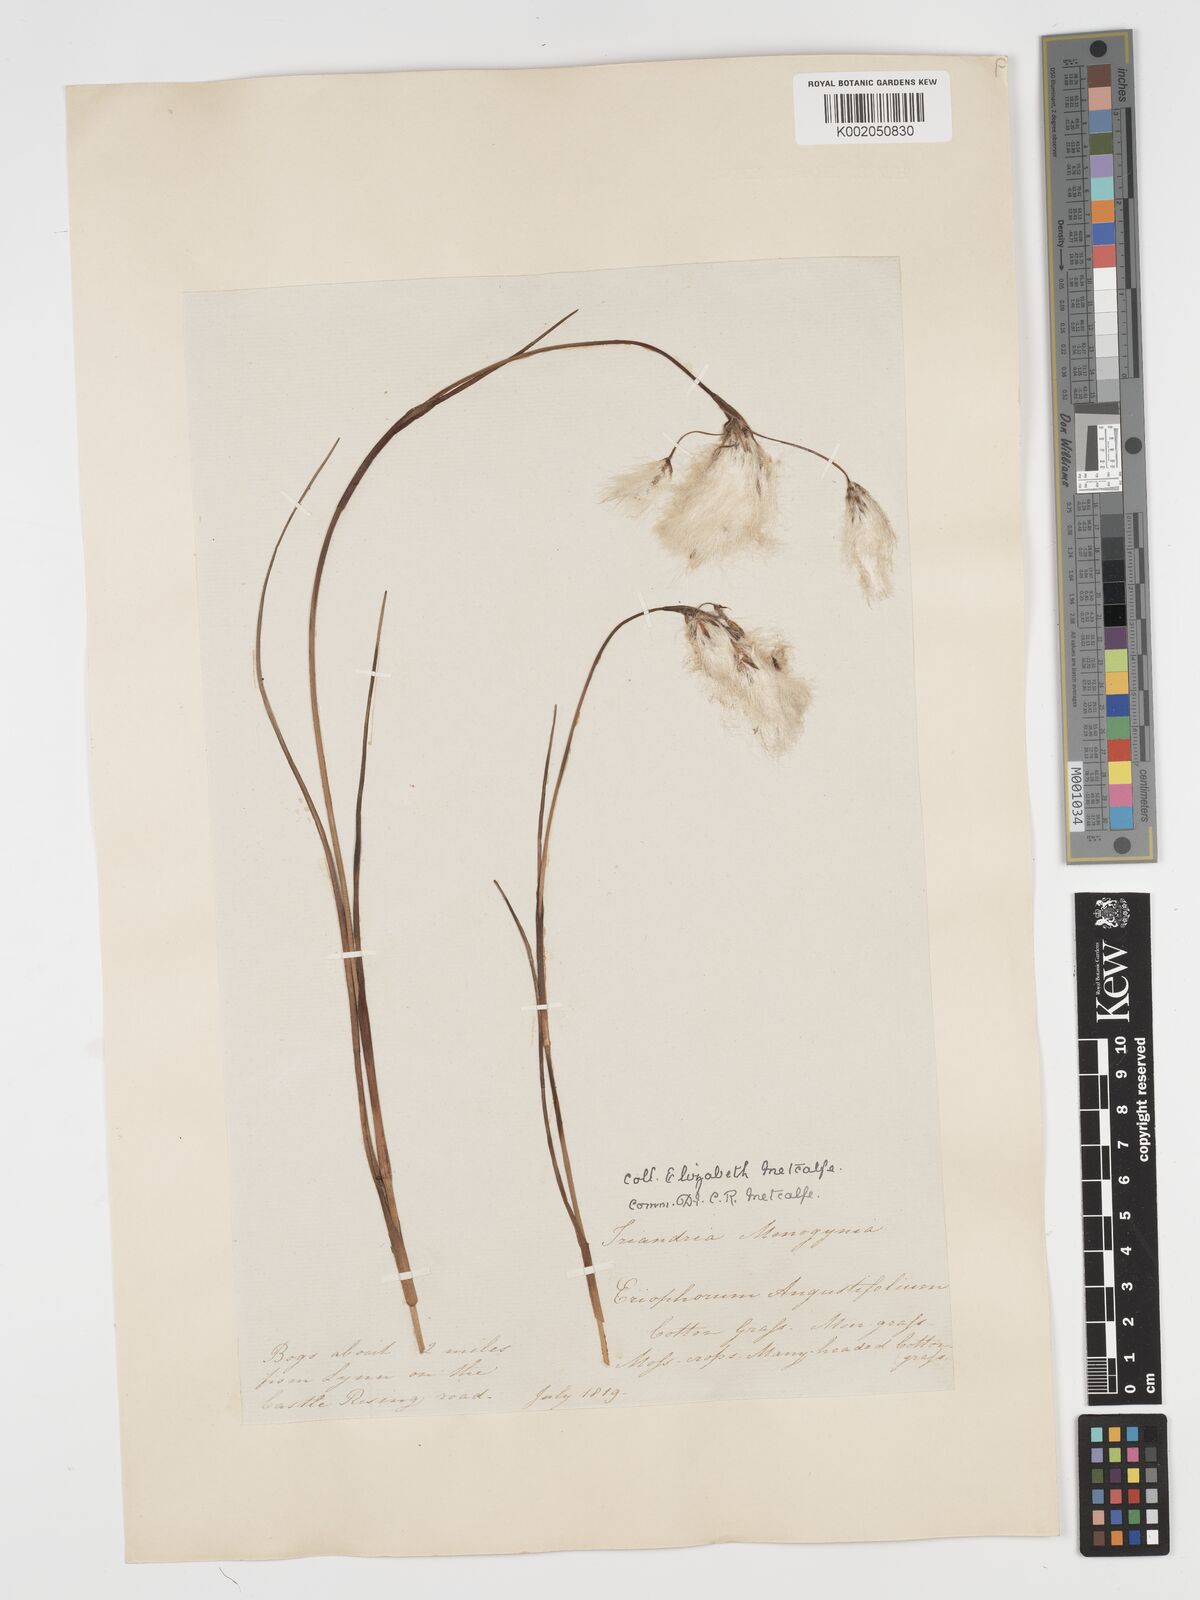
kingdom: Plantae
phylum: Tracheophyta
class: Liliopsida
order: Poales
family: Cyperaceae
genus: Eriophorum
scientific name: Eriophorum angustifolium
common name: Common cottongrass
